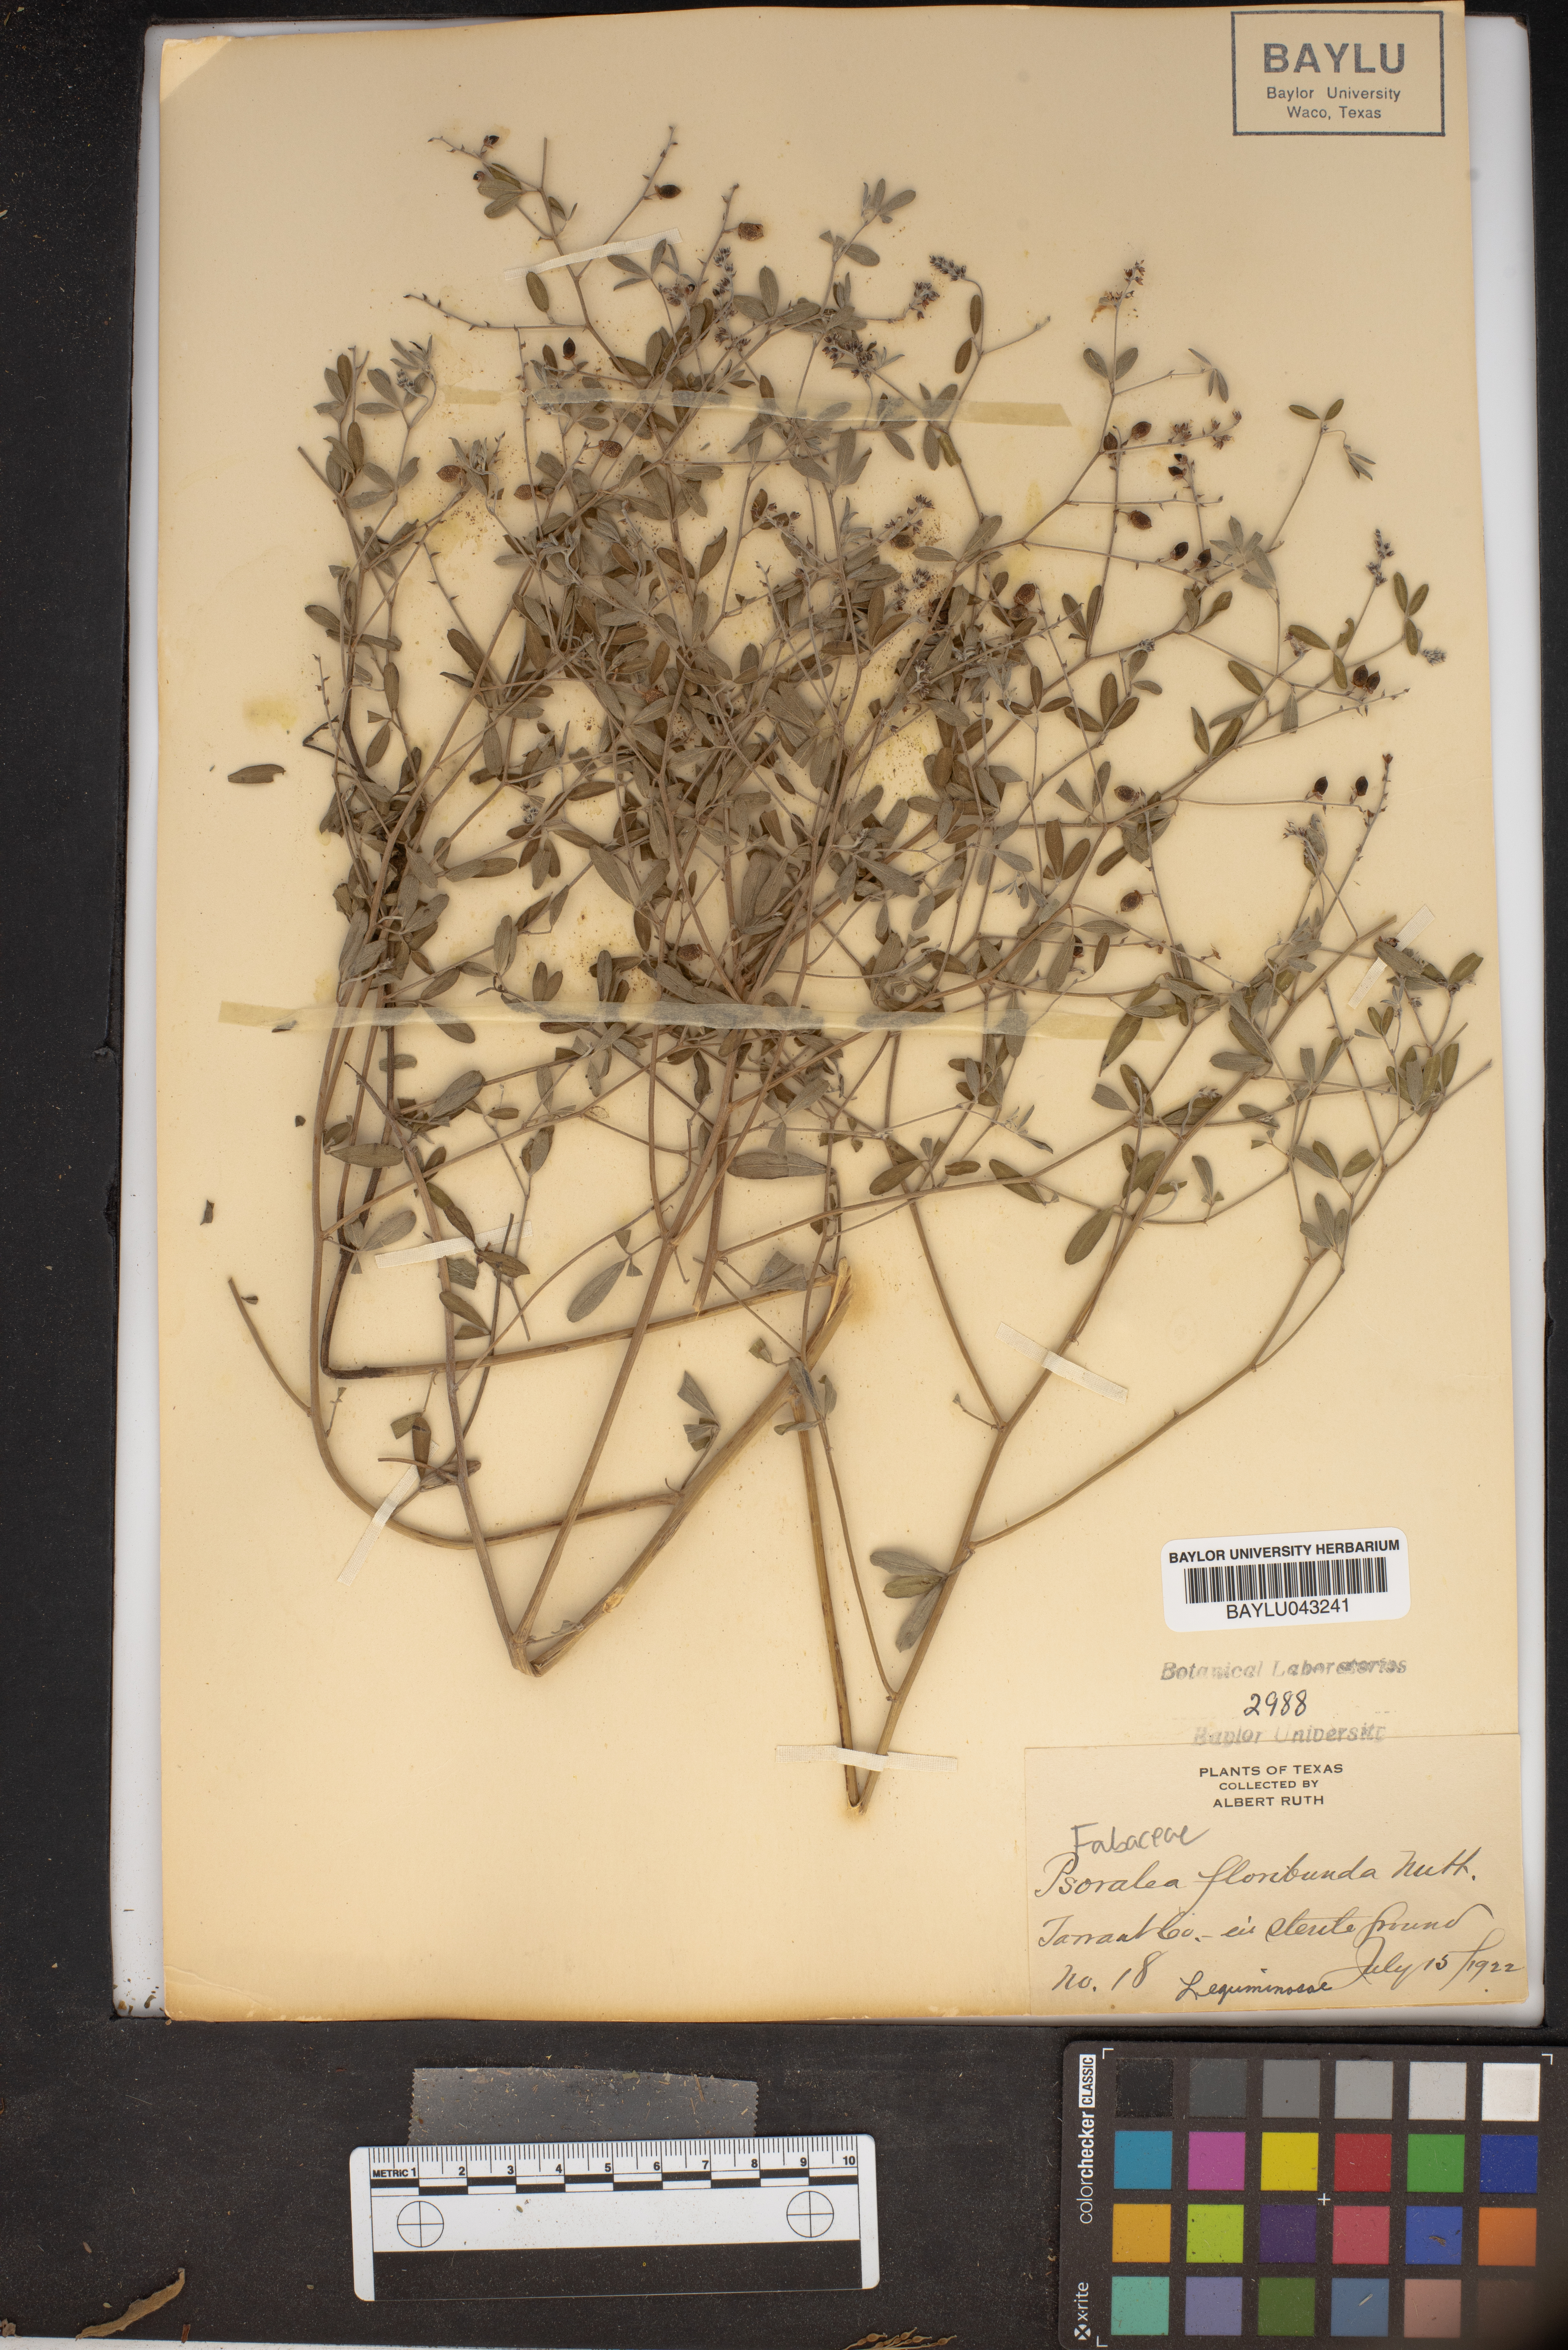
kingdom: Plantae
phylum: Tracheophyta
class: Magnoliopsida
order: Fabales
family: Fabaceae
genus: Pediomelum
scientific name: Pediomelum tenuiflorum
